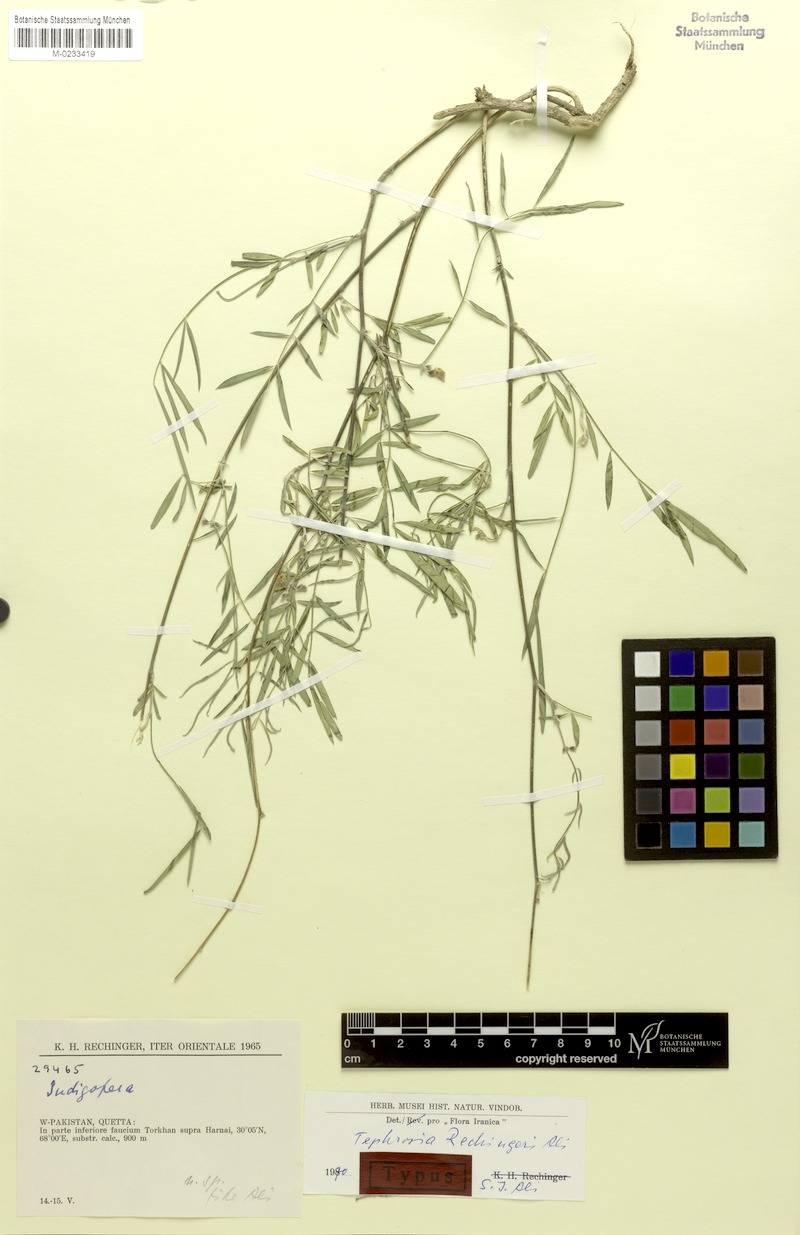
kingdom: Plantae
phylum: Tracheophyta
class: Magnoliopsida
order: Fabales
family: Fabaceae
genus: Tephrosia
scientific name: Tephrosia rechingeri
